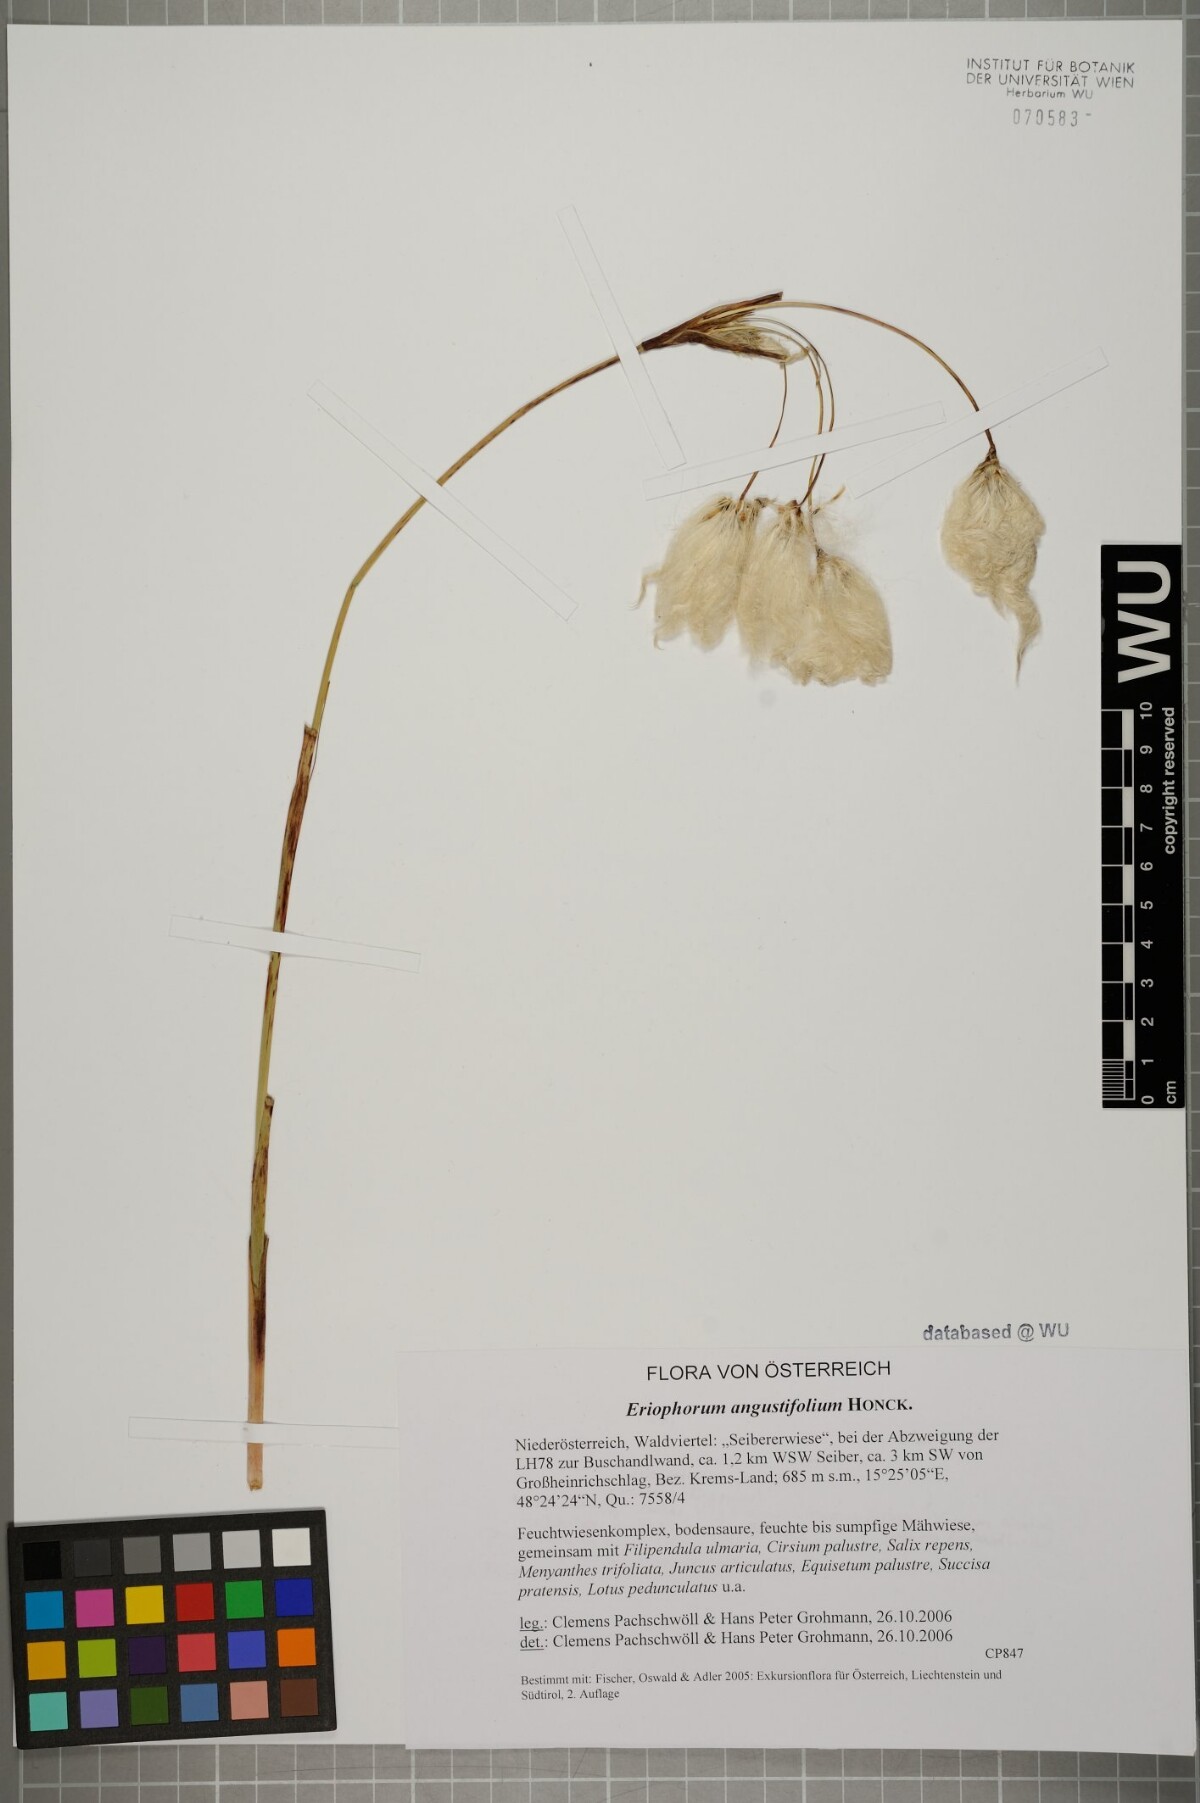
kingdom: Plantae
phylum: Tracheophyta
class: Liliopsida
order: Poales
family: Cyperaceae
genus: Eriophorum
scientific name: Eriophorum angustifolium
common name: Common cottongrass
